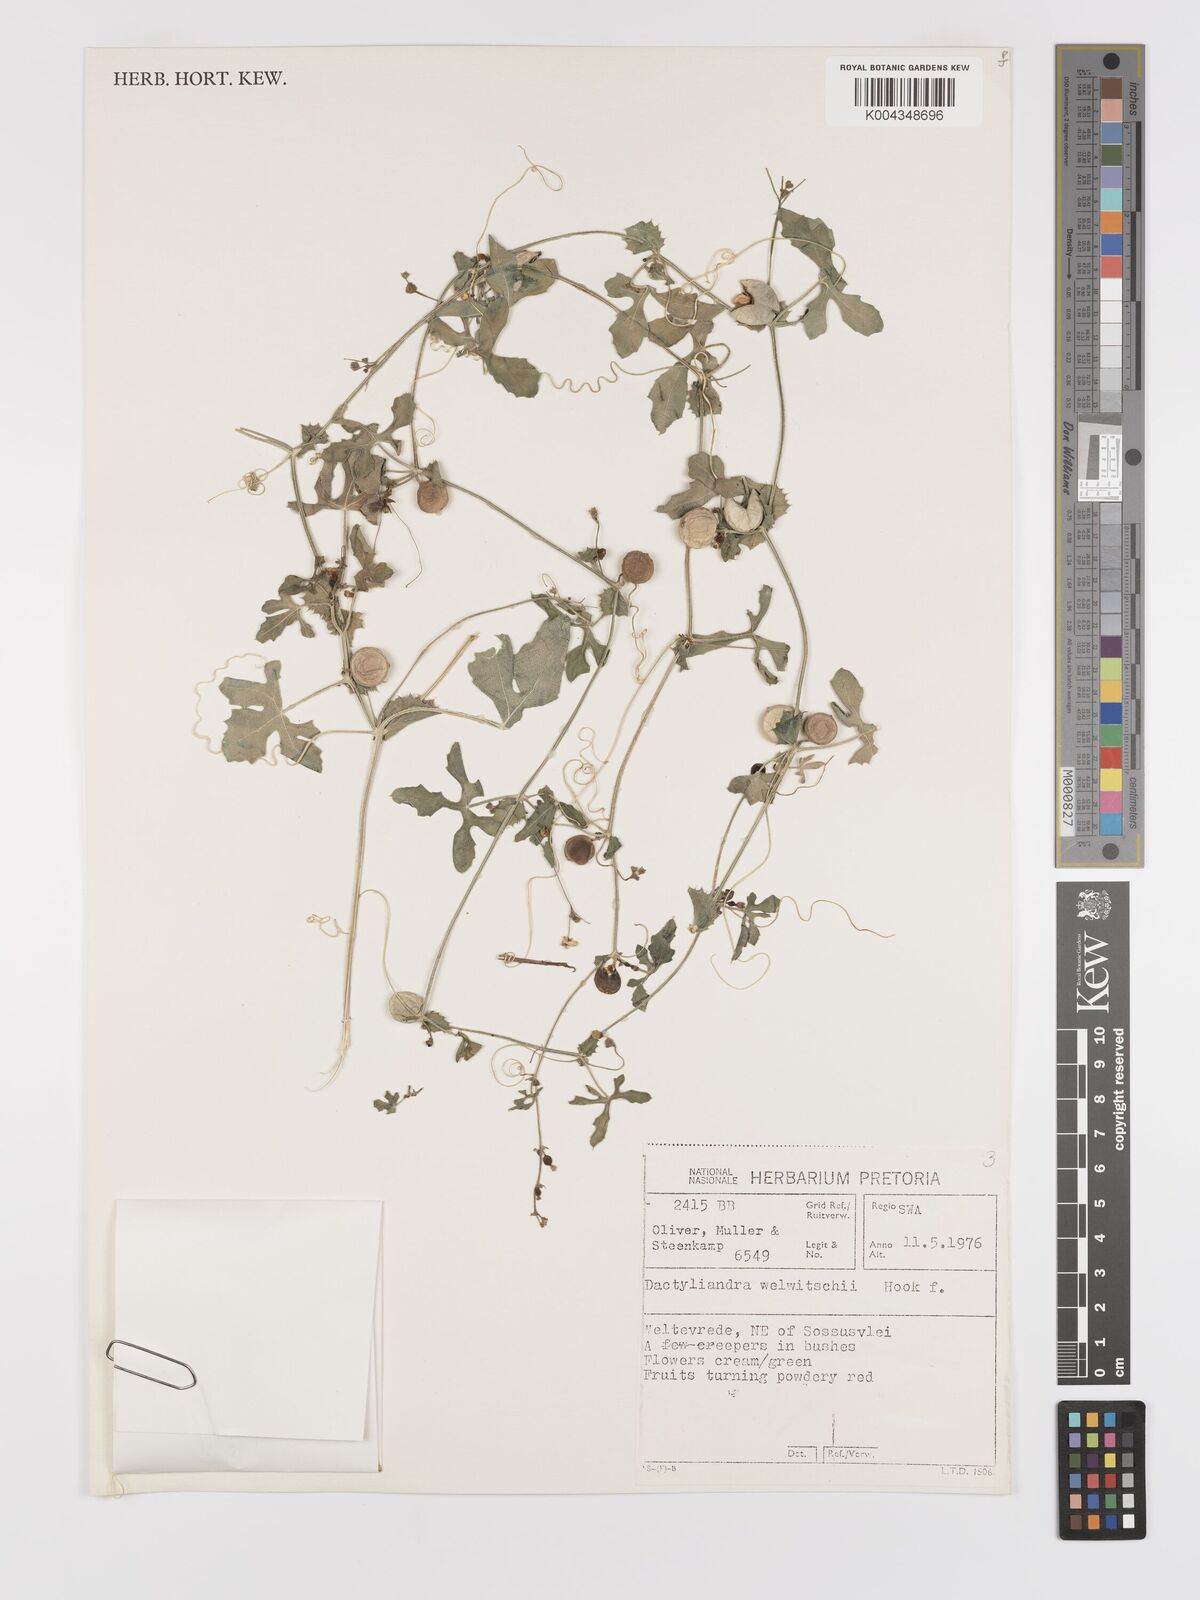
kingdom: Plantae
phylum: Tracheophyta
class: Magnoliopsida
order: Cucurbitales
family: Cucurbitaceae
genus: Dactyliandra
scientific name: Dactyliandra welwitschii
